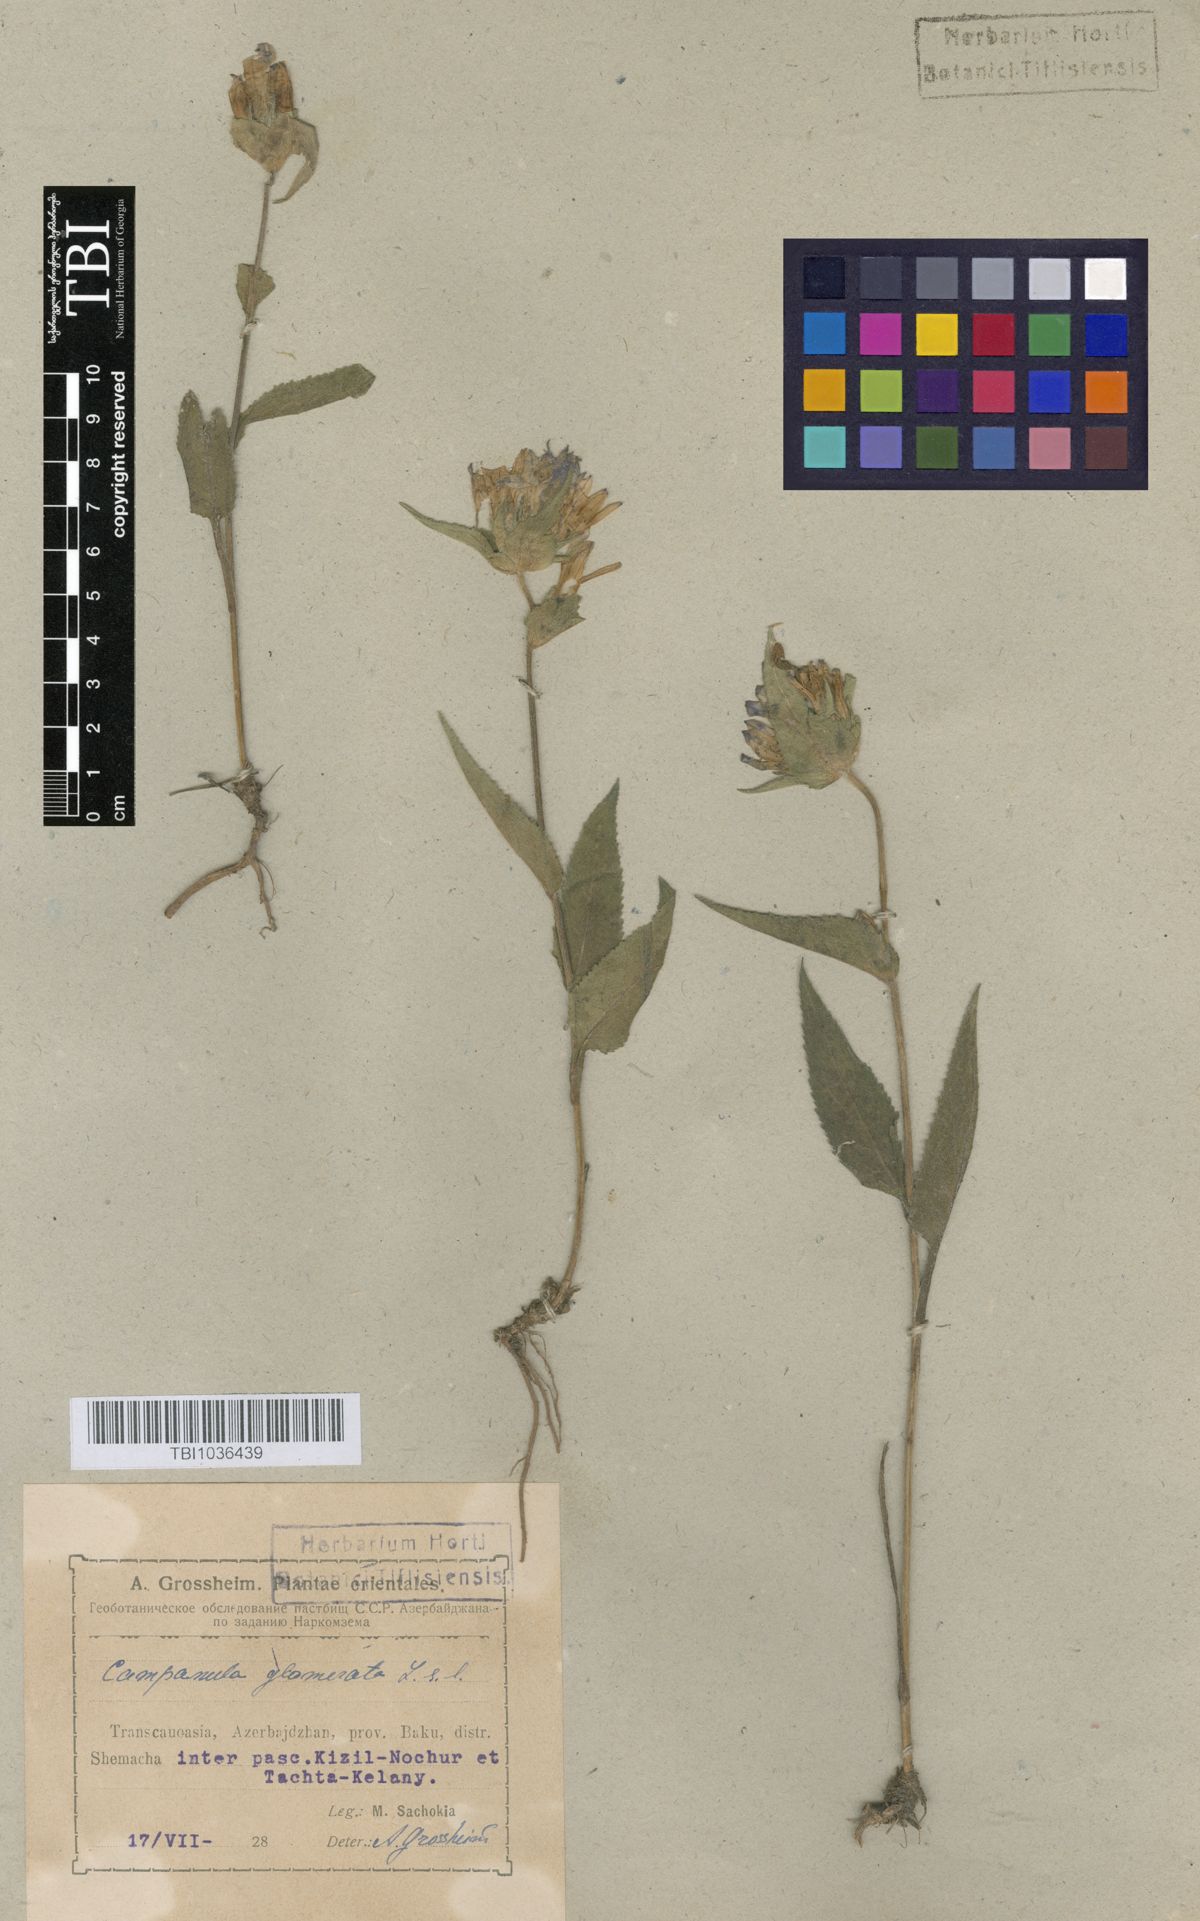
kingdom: Plantae
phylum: Tracheophyta
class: Magnoliopsida
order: Asterales
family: Campanulaceae
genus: Campanula
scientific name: Campanula glomerata
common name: Clustered bellflower
